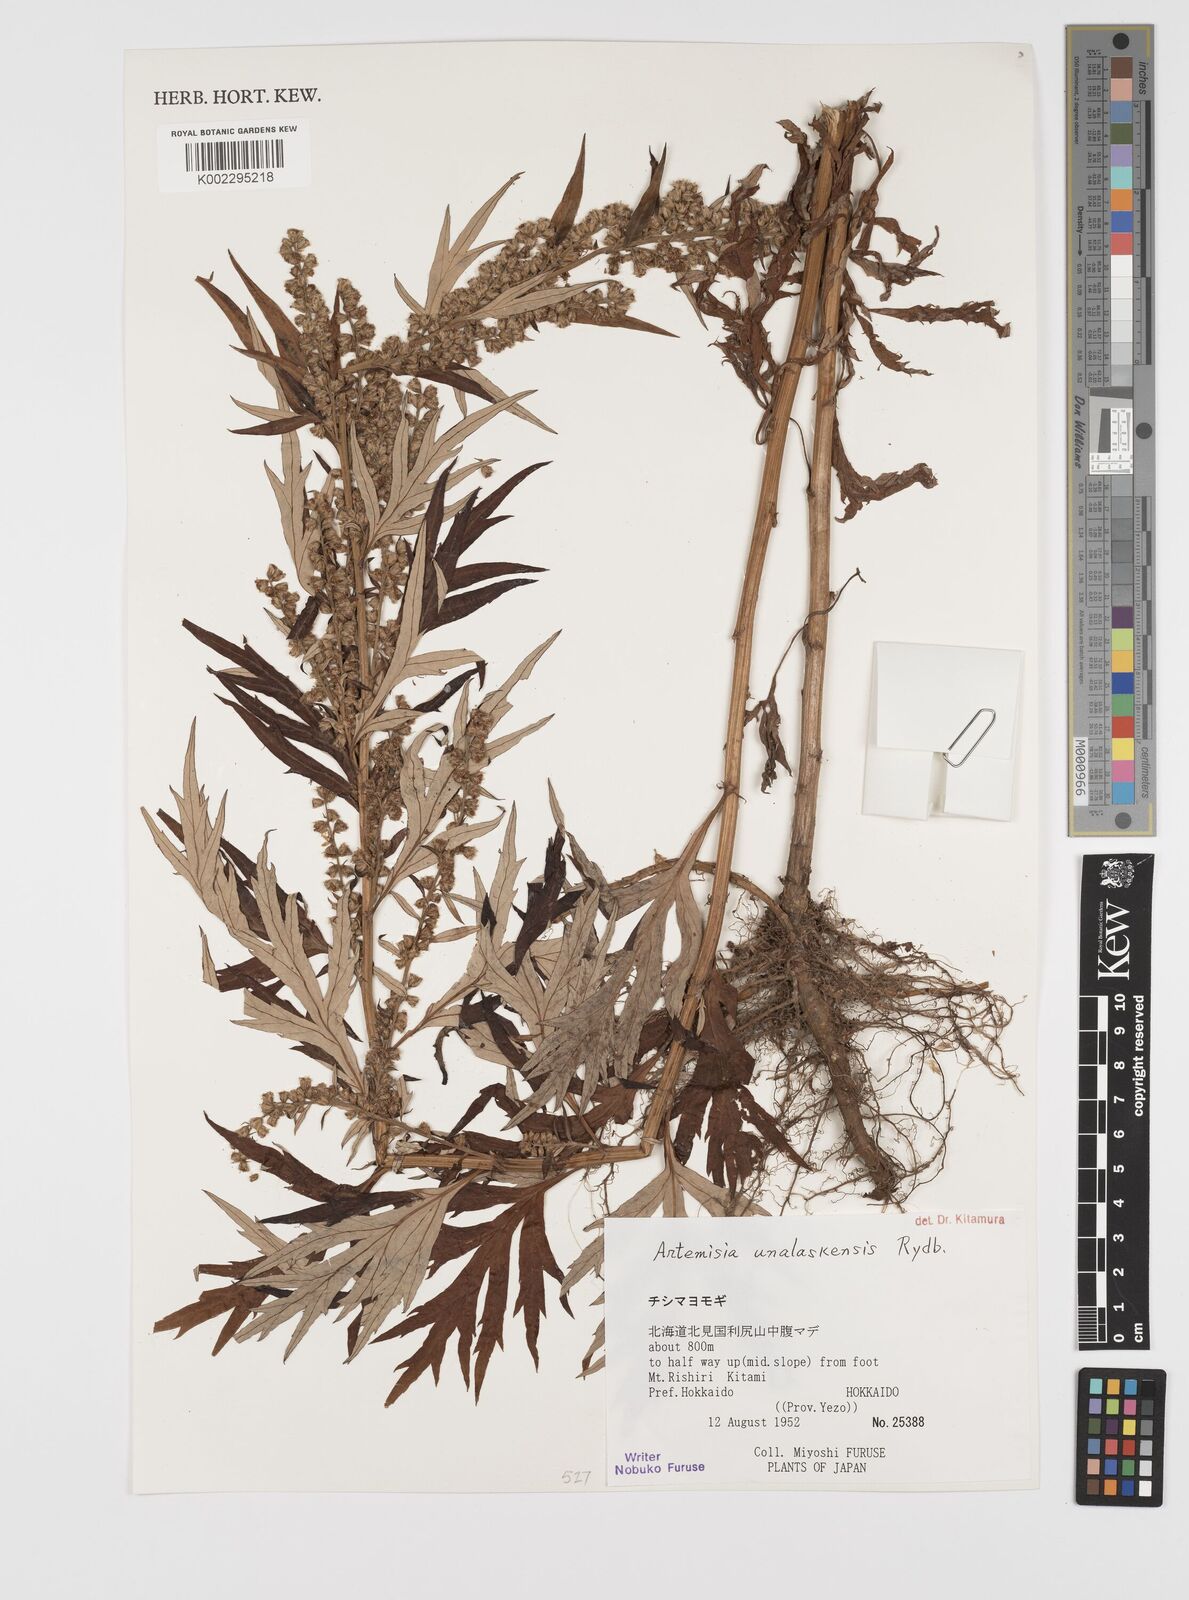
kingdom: Plantae
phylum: Tracheophyta
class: Magnoliopsida
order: Asterales
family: Asteraceae
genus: Artemisia
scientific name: Artemisia tilesii
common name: Aleutian mugwort
